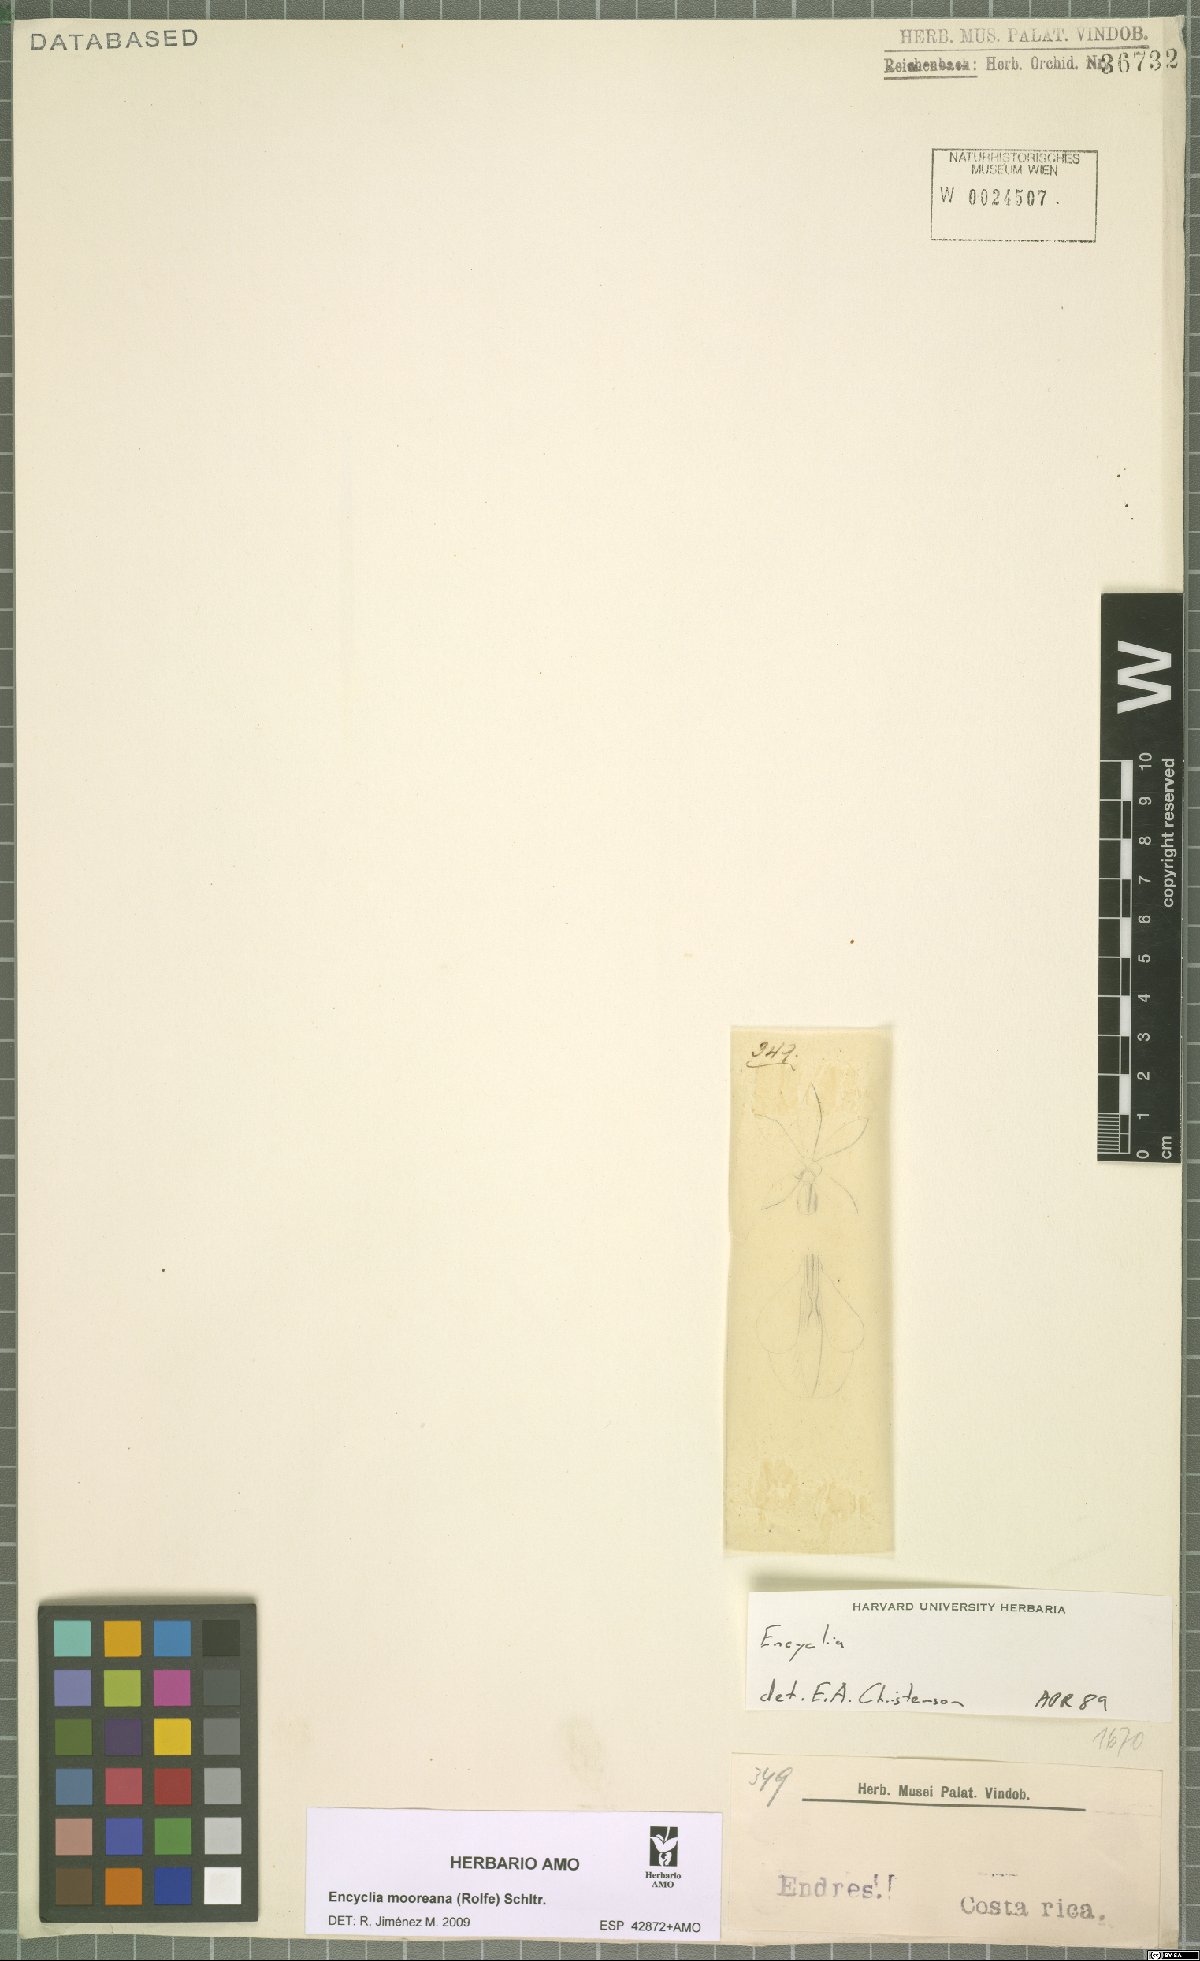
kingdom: Plantae
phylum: Tracheophyta
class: Liliopsida
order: Asparagales
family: Orchidaceae
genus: Encyclia
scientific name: Encyclia mooreana
